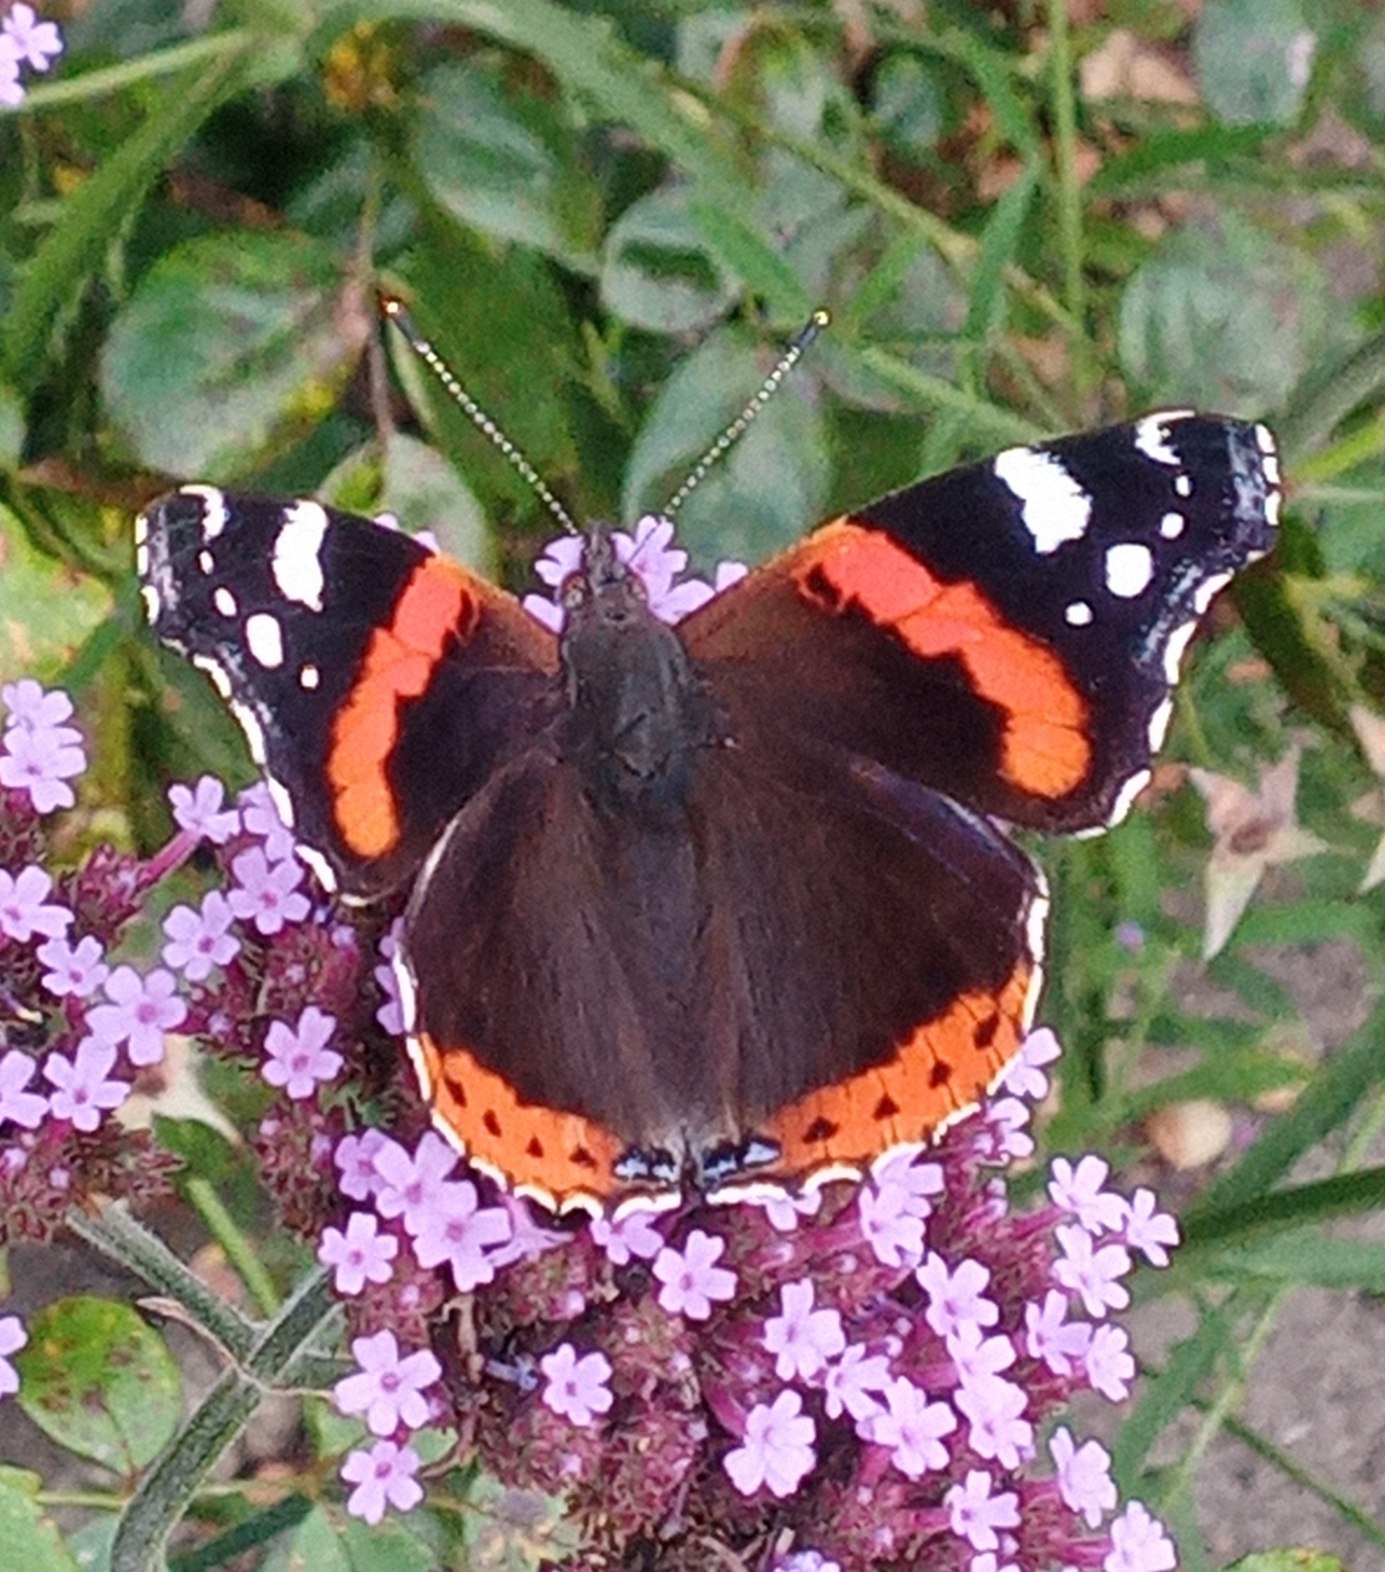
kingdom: Animalia
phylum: Arthropoda
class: Insecta
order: Lepidoptera
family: Nymphalidae
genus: Vanessa
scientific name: Vanessa atalanta
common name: Admiral
